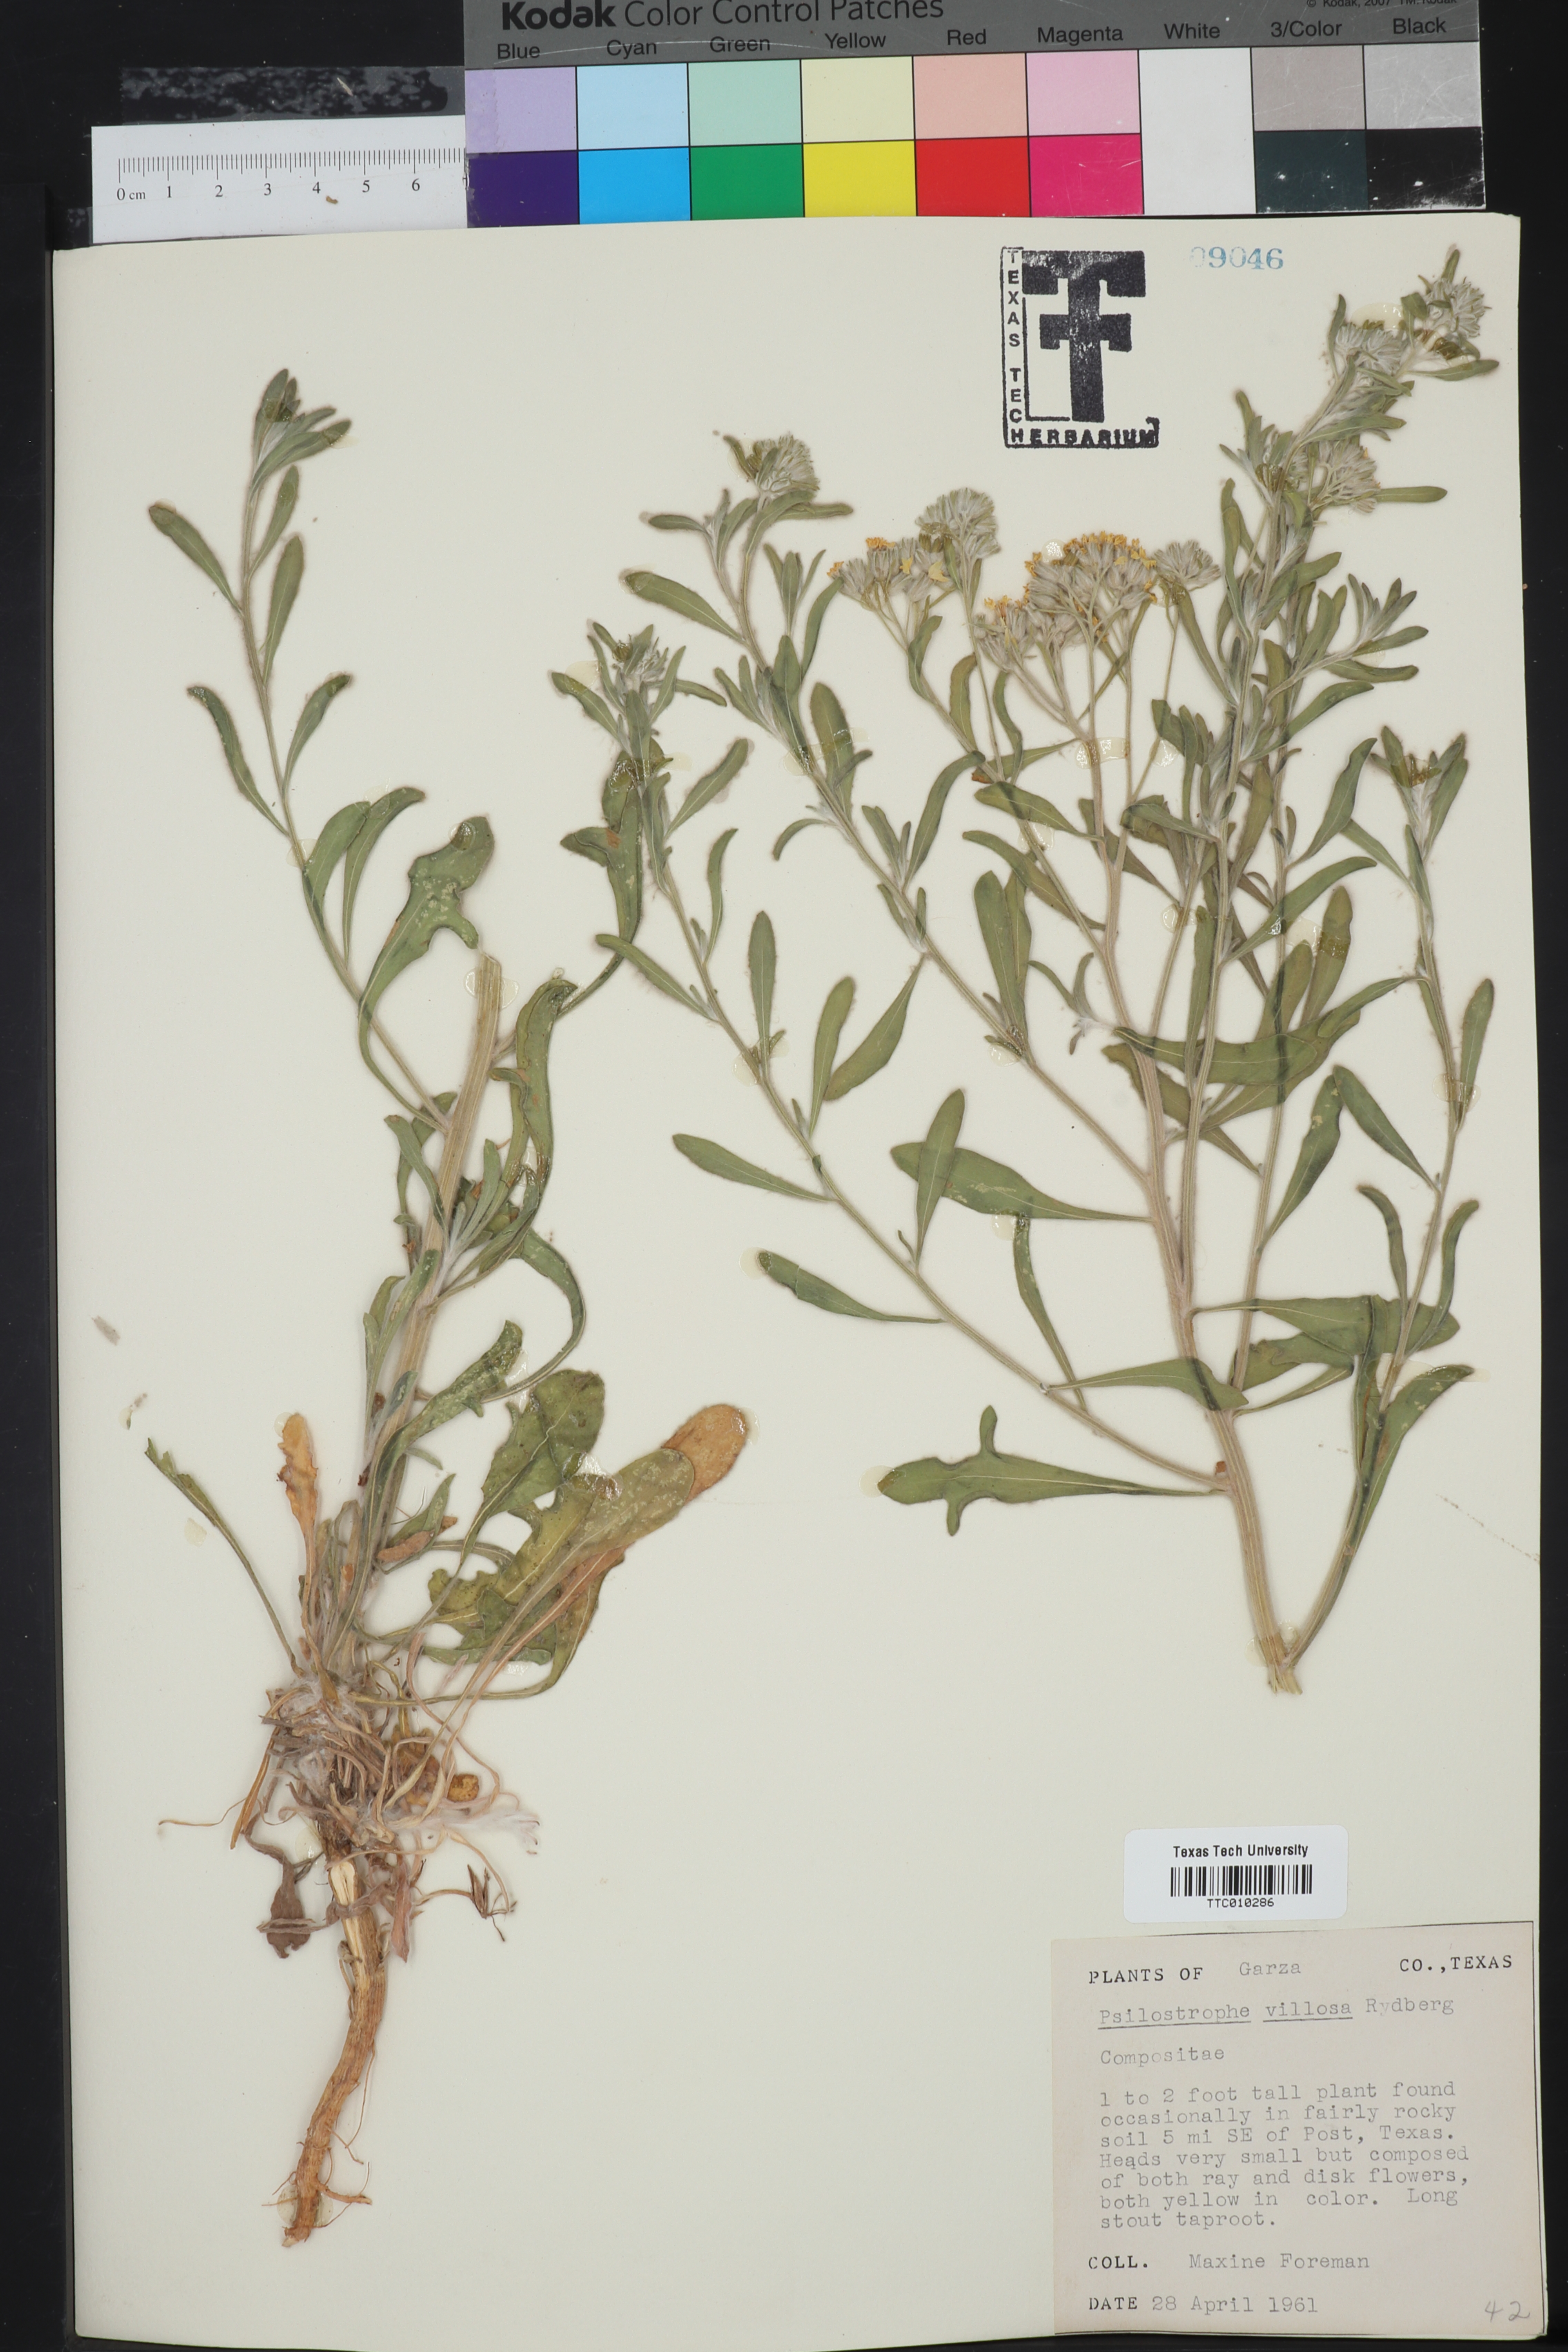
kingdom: Plantae
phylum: Tracheophyta
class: Magnoliopsida
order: Asterales
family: Asteraceae
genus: Psilostrophe
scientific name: Psilostrophe villosa
